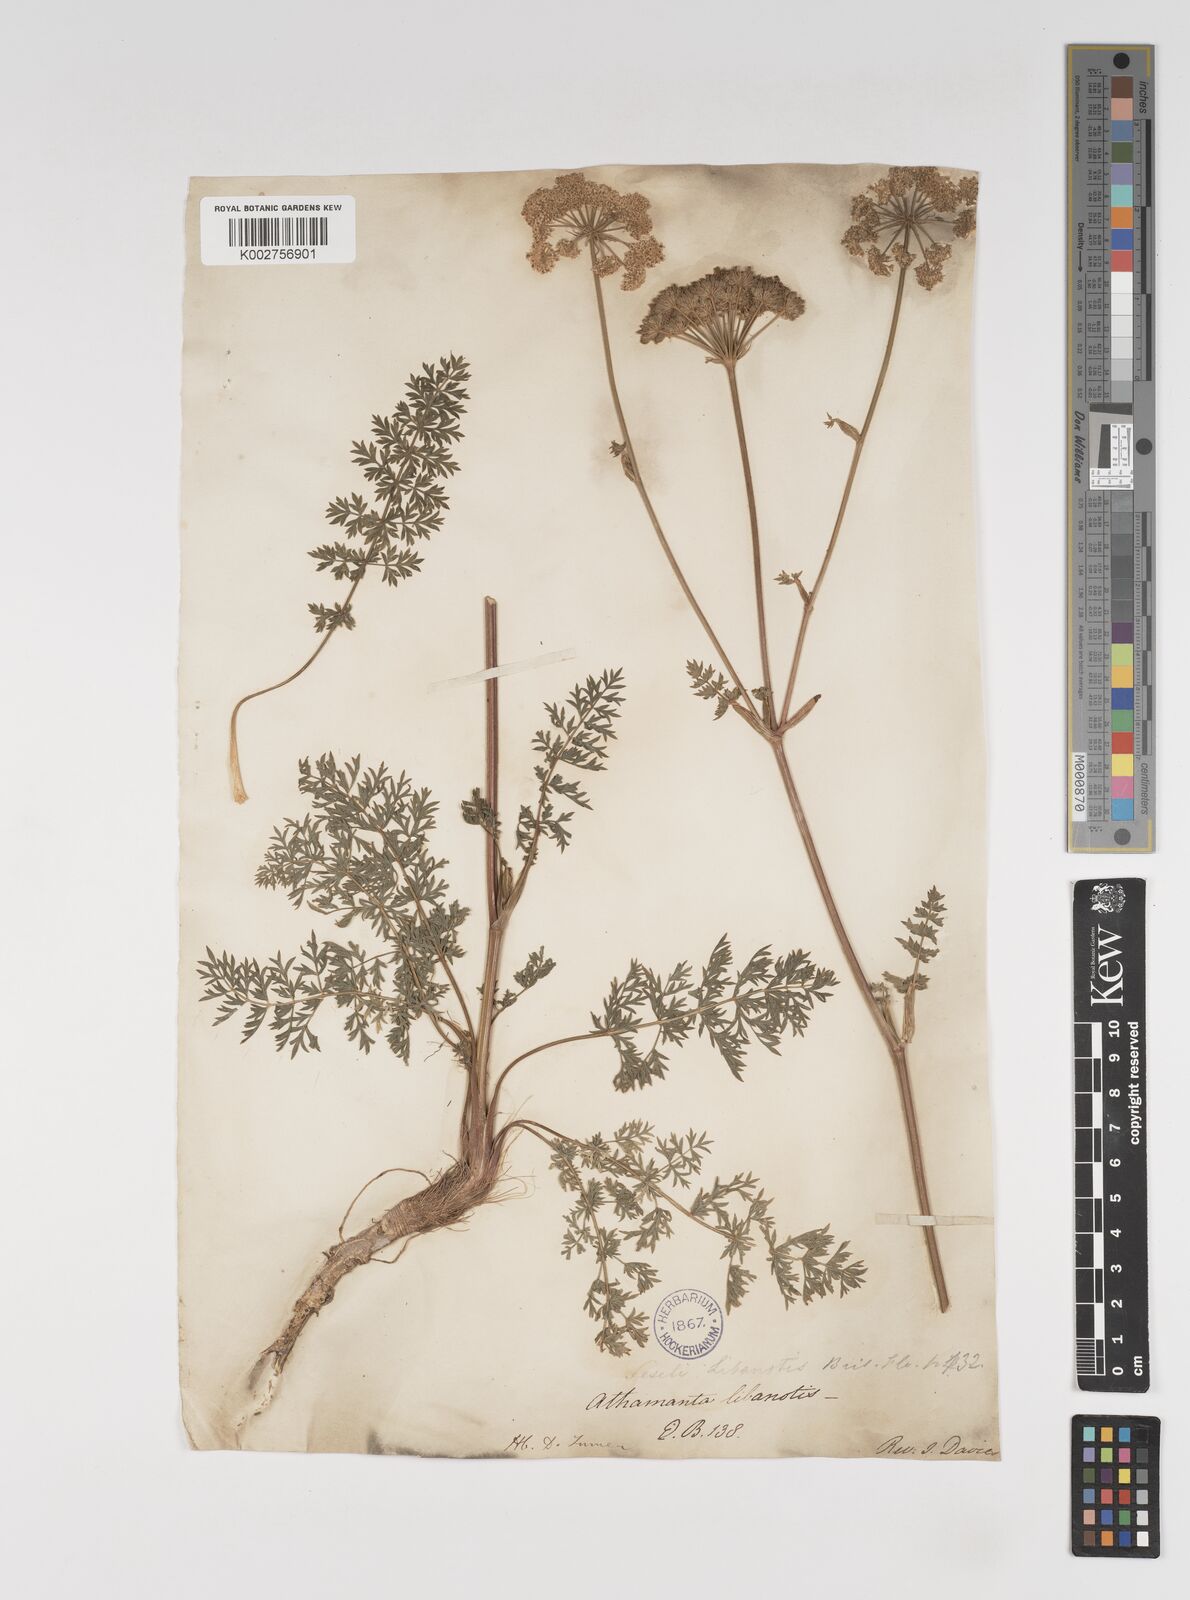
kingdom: Plantae
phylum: Tracheophyta
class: Magnoliopsida
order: Apiales
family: Apiaceae
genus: Seseli
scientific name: Seseli libanotis
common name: Mooncarrot
